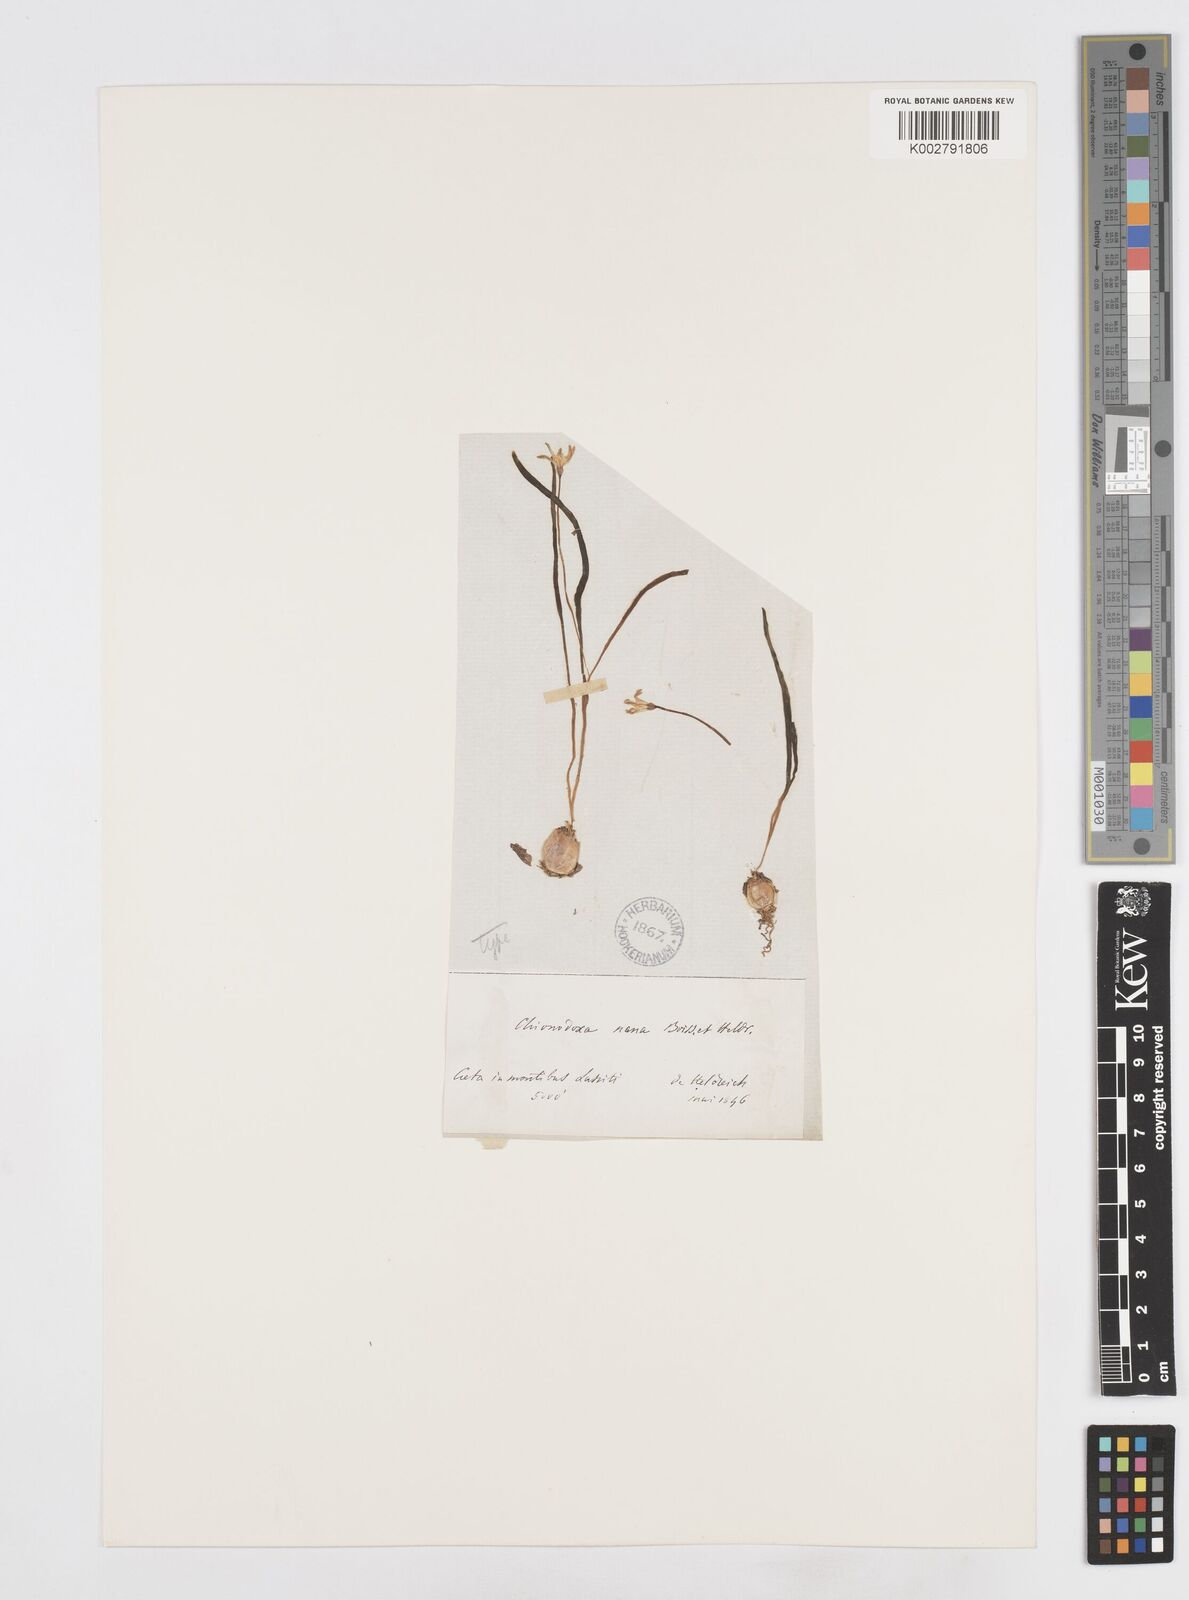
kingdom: Plantae
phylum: Tracheophyta
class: Liliopsida
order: Asparagales
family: Asparagaceae
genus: Scilla
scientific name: Scilla cretica
